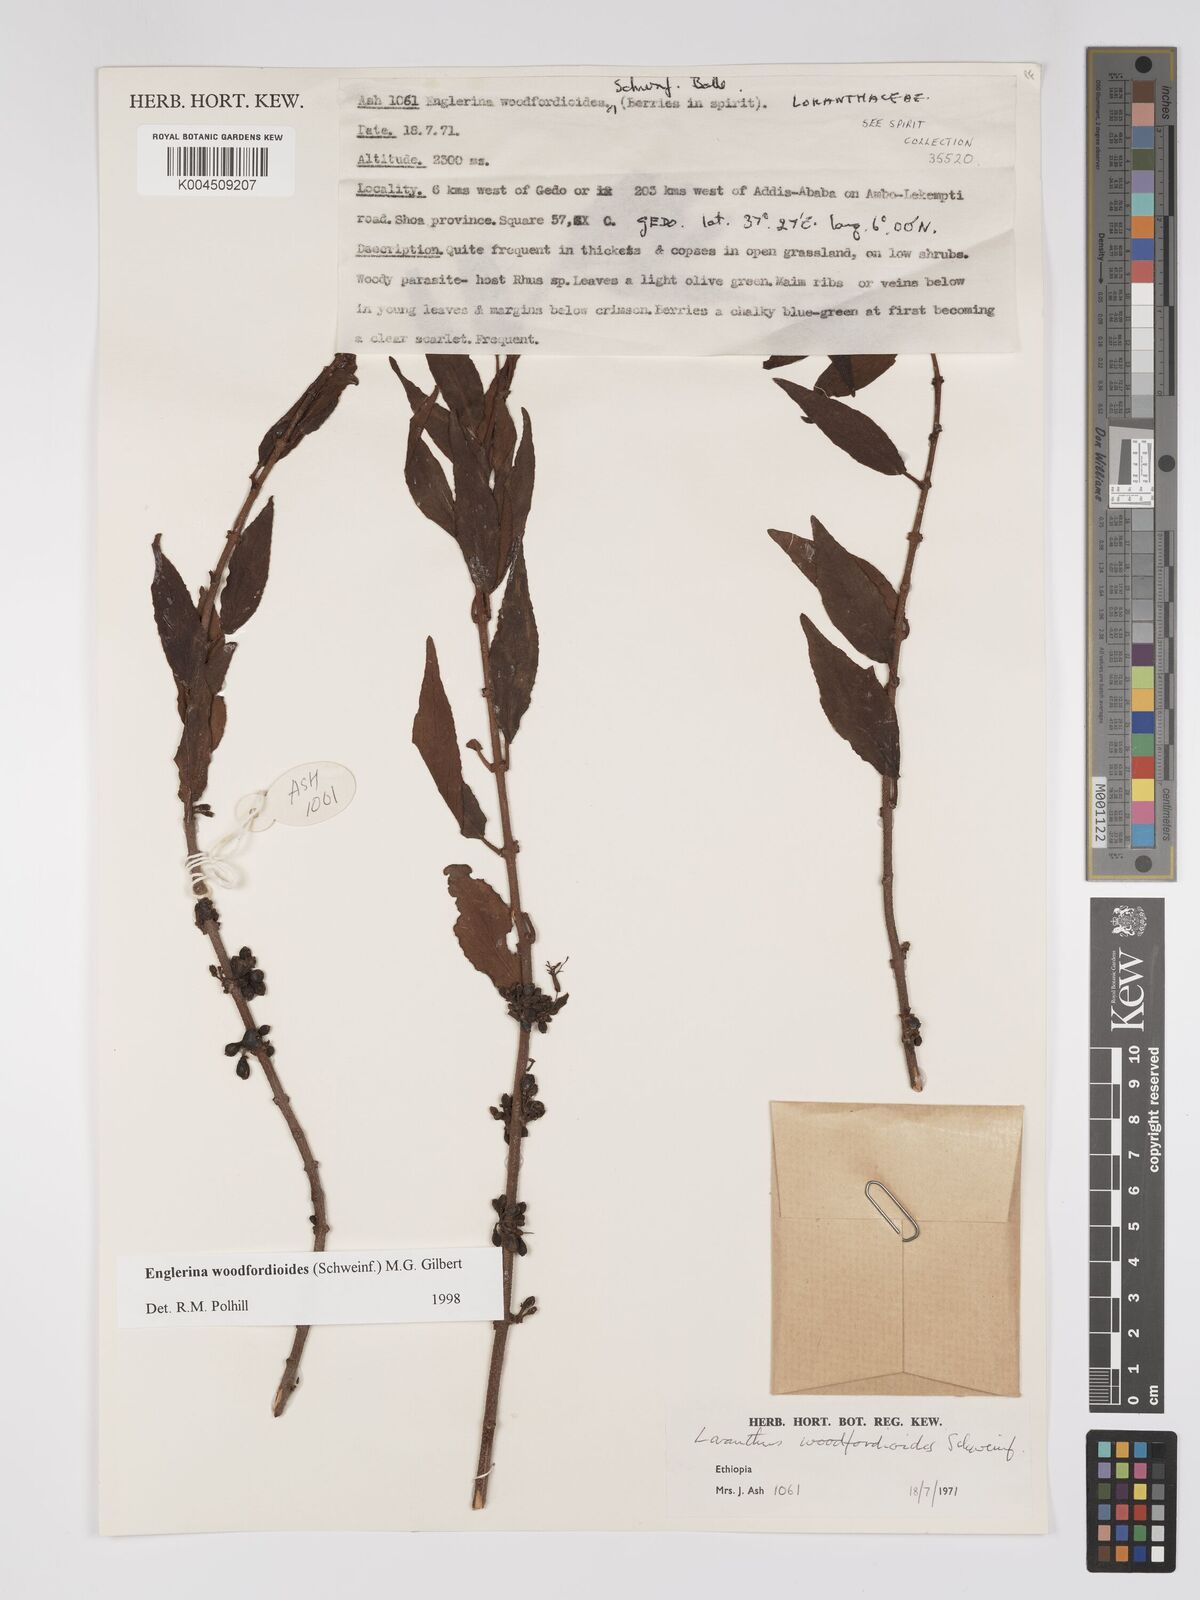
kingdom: Plantae
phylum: Tracheophyta
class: Magnoliopsida
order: Santalales
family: Loranthaceae
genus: Englerina
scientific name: Englerina woodfordioides
